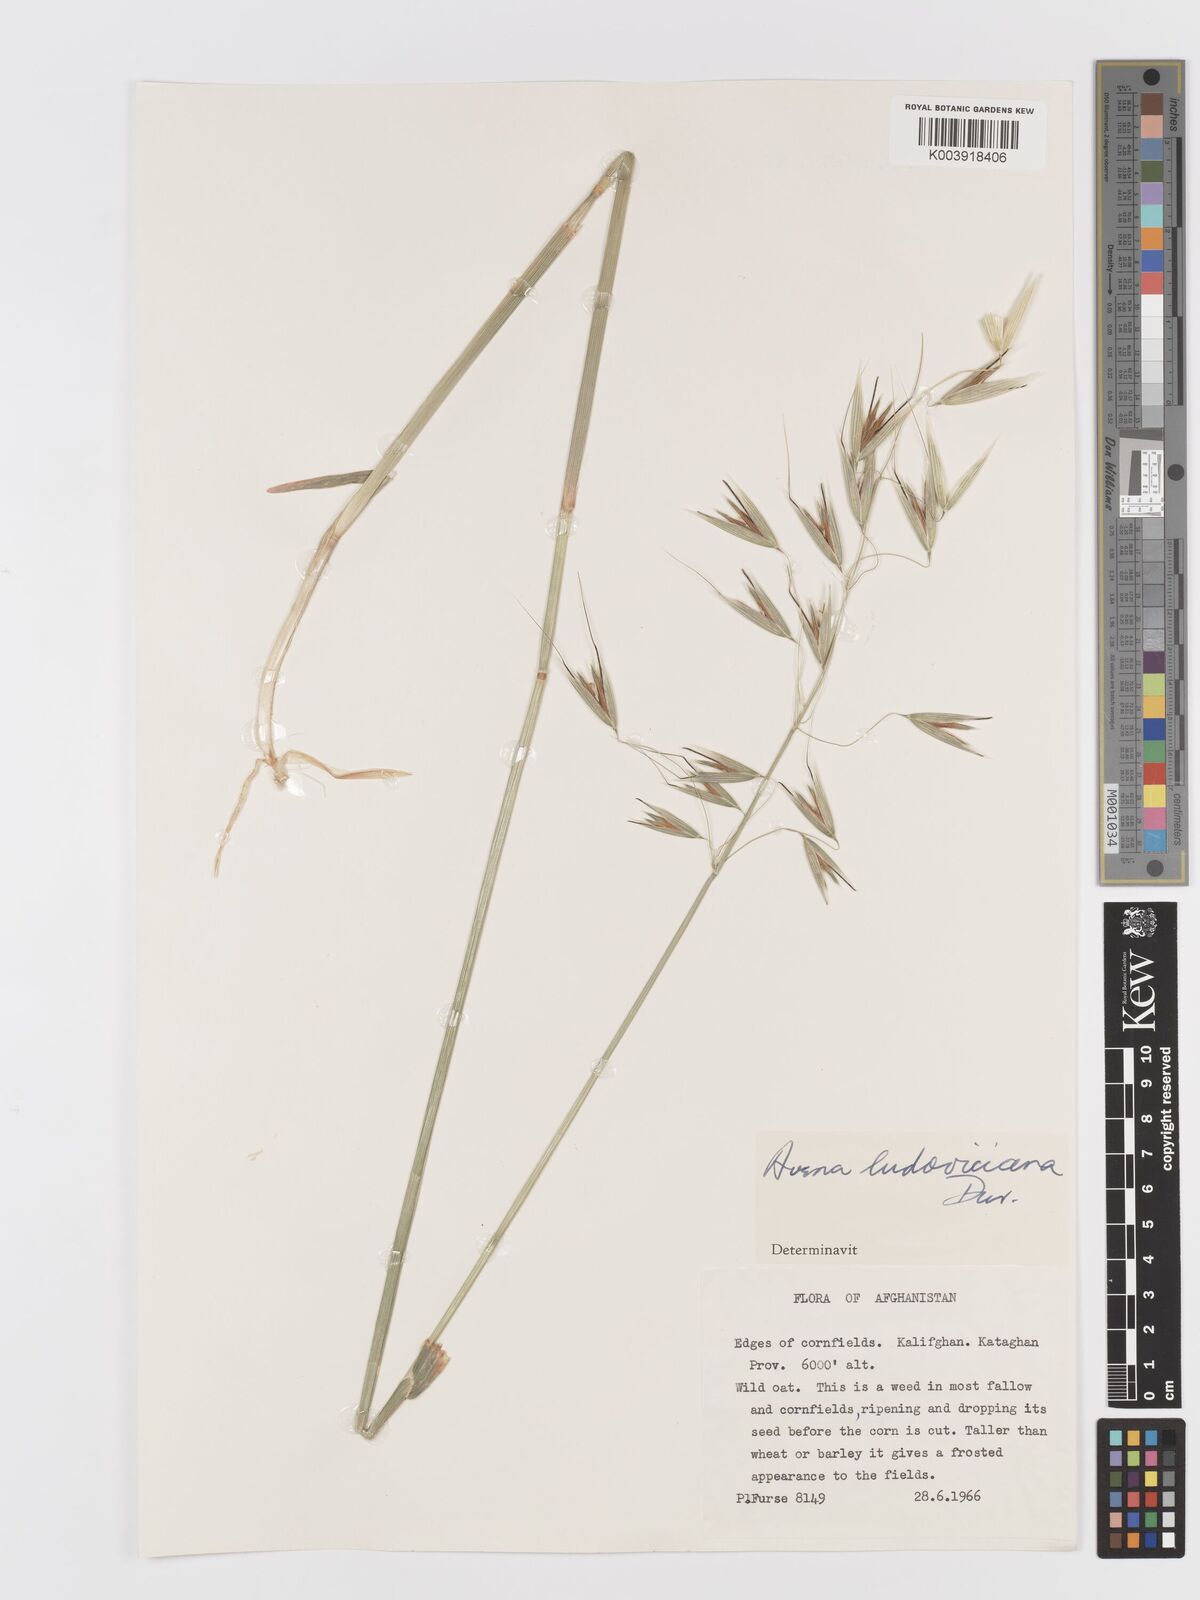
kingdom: Plantae
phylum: Tracheophyta
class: Liliopsida
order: Poales
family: Poaceae
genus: Avena
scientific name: Avena sterilis
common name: Animated oat
